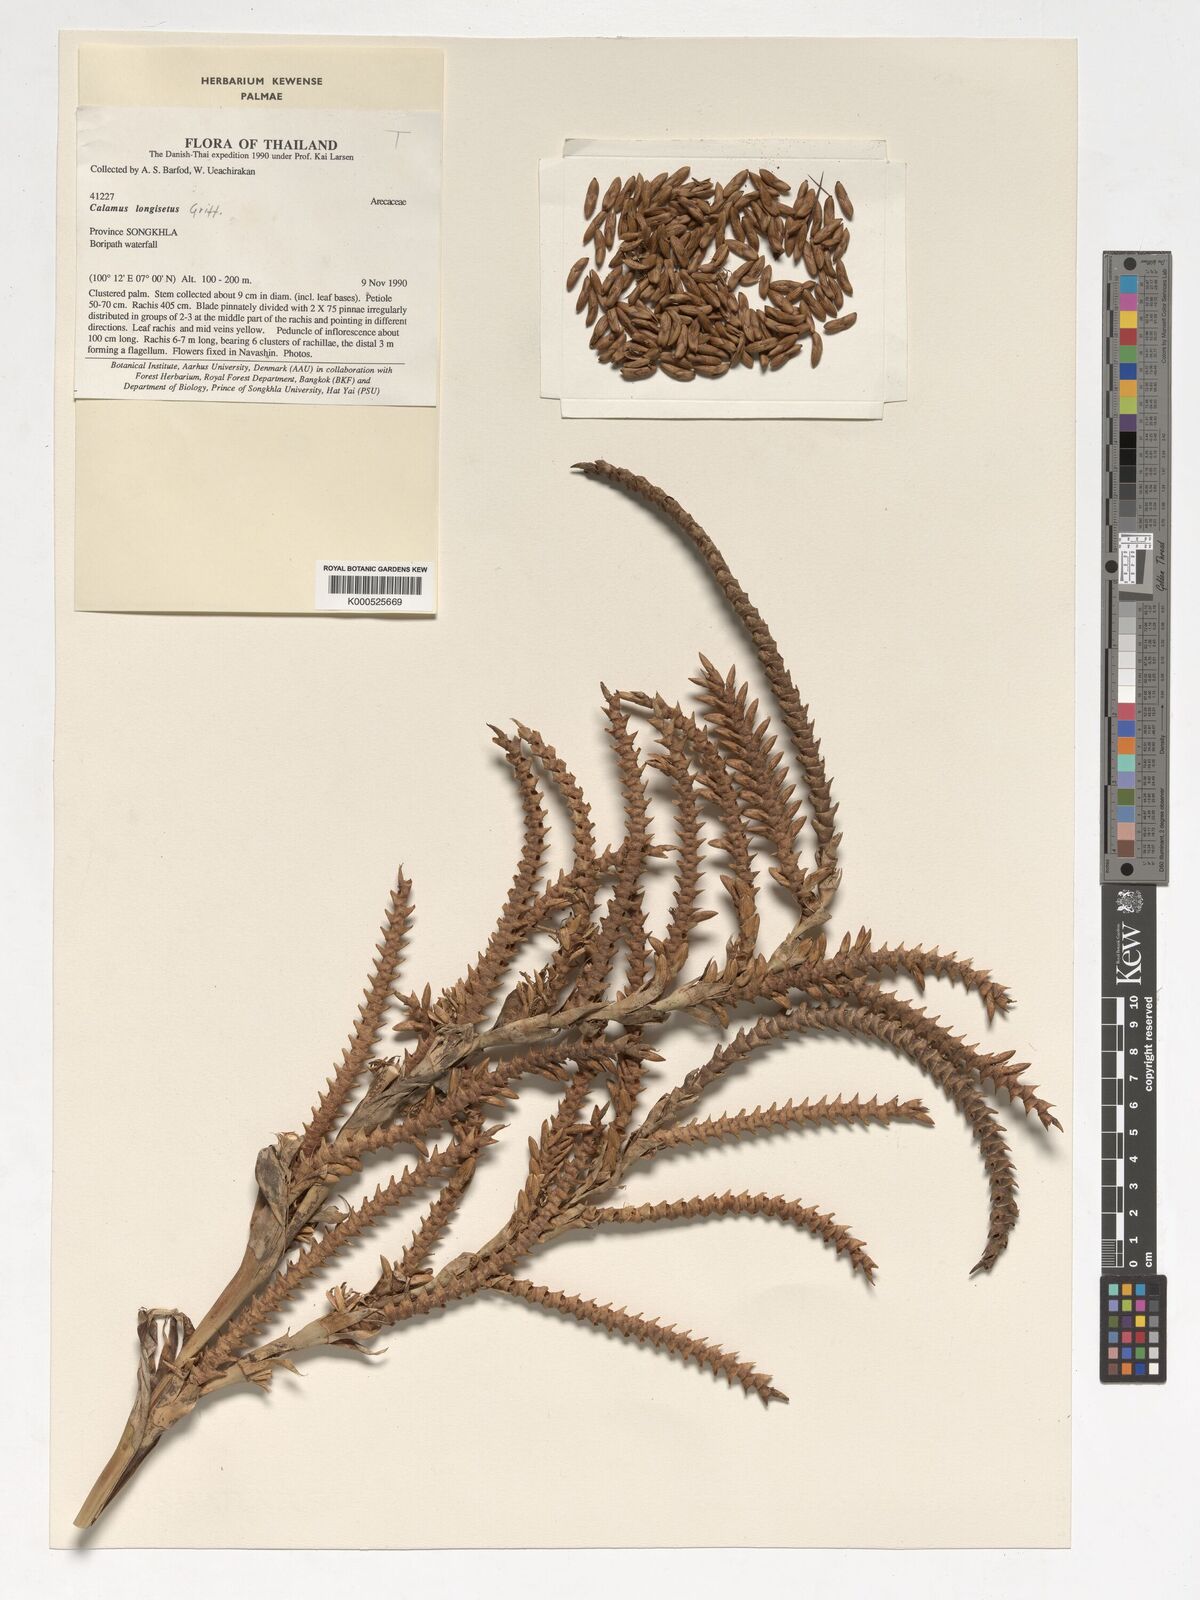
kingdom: Plantae
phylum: Tracheophyta
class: Liliopsida
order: Arecales
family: Arecaceae
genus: Calamus
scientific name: Calamus longisetus
